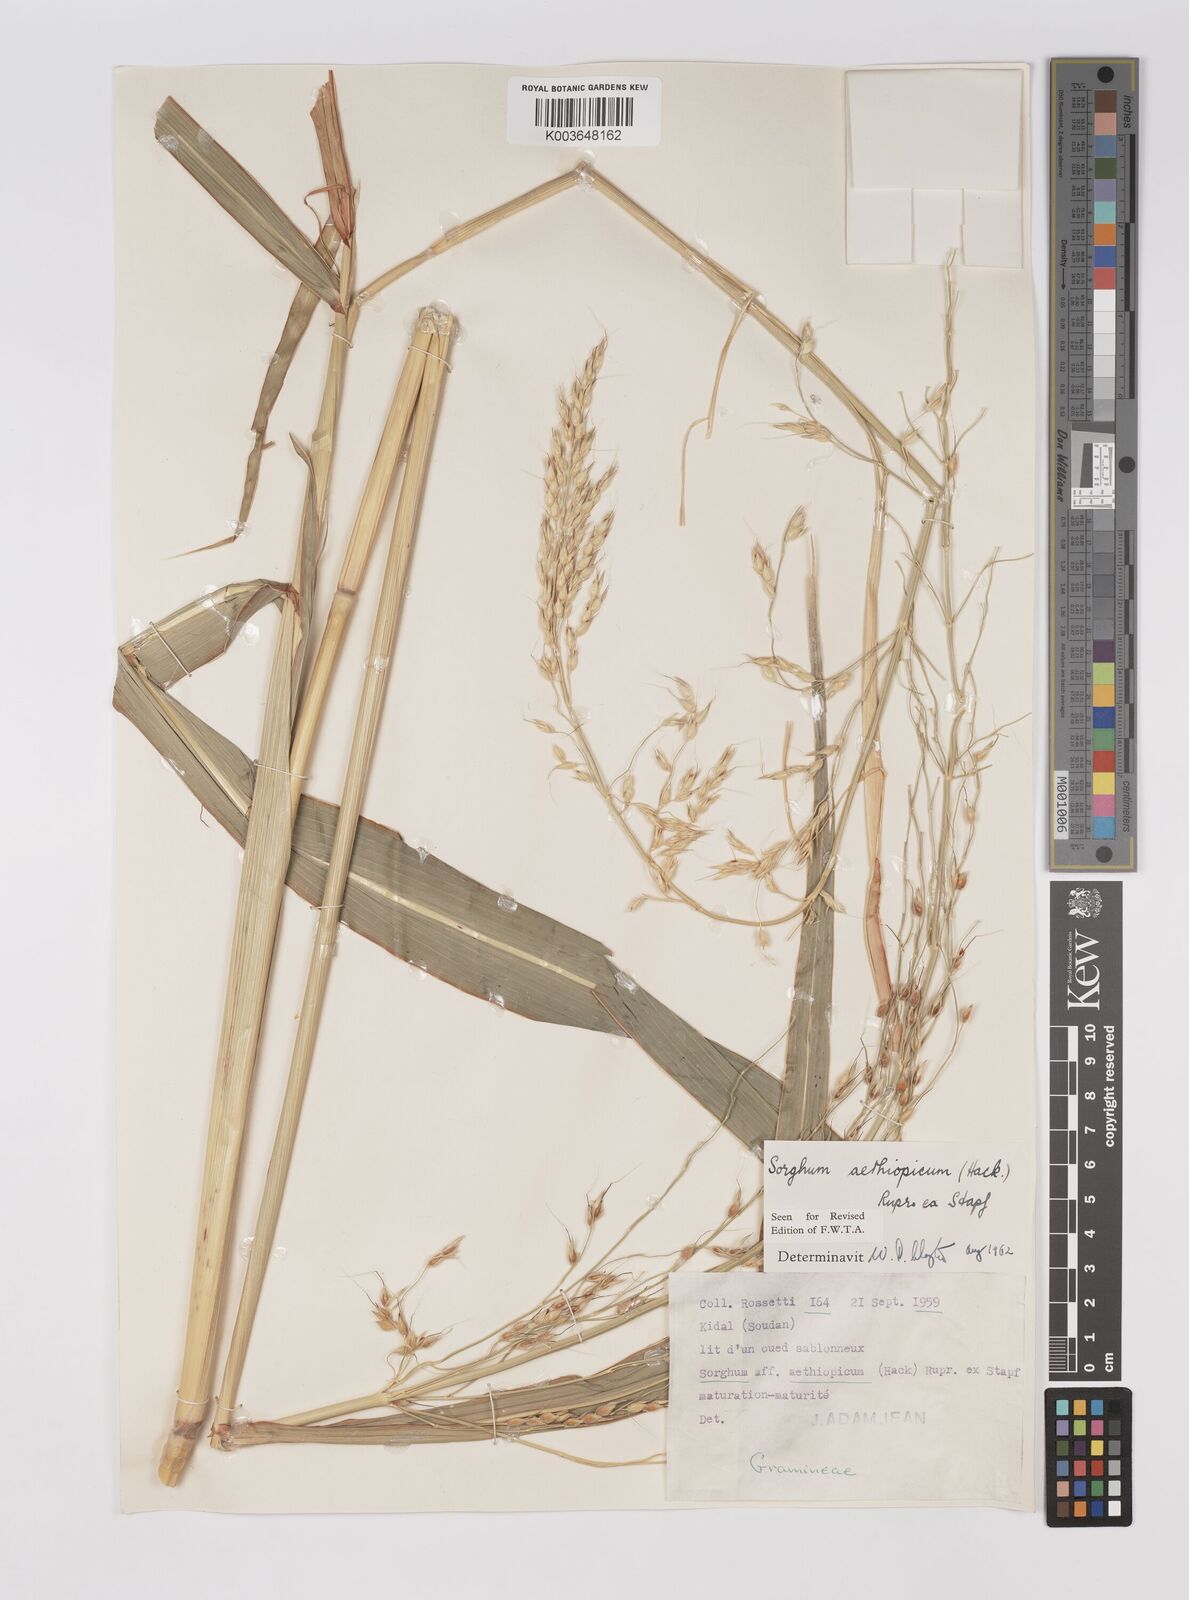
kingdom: Plantae
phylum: Tracheophyta
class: Liliopsida
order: Poales
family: Poaceae
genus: Sorghum
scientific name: Sorghum arundinaceum
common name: Sorghum
